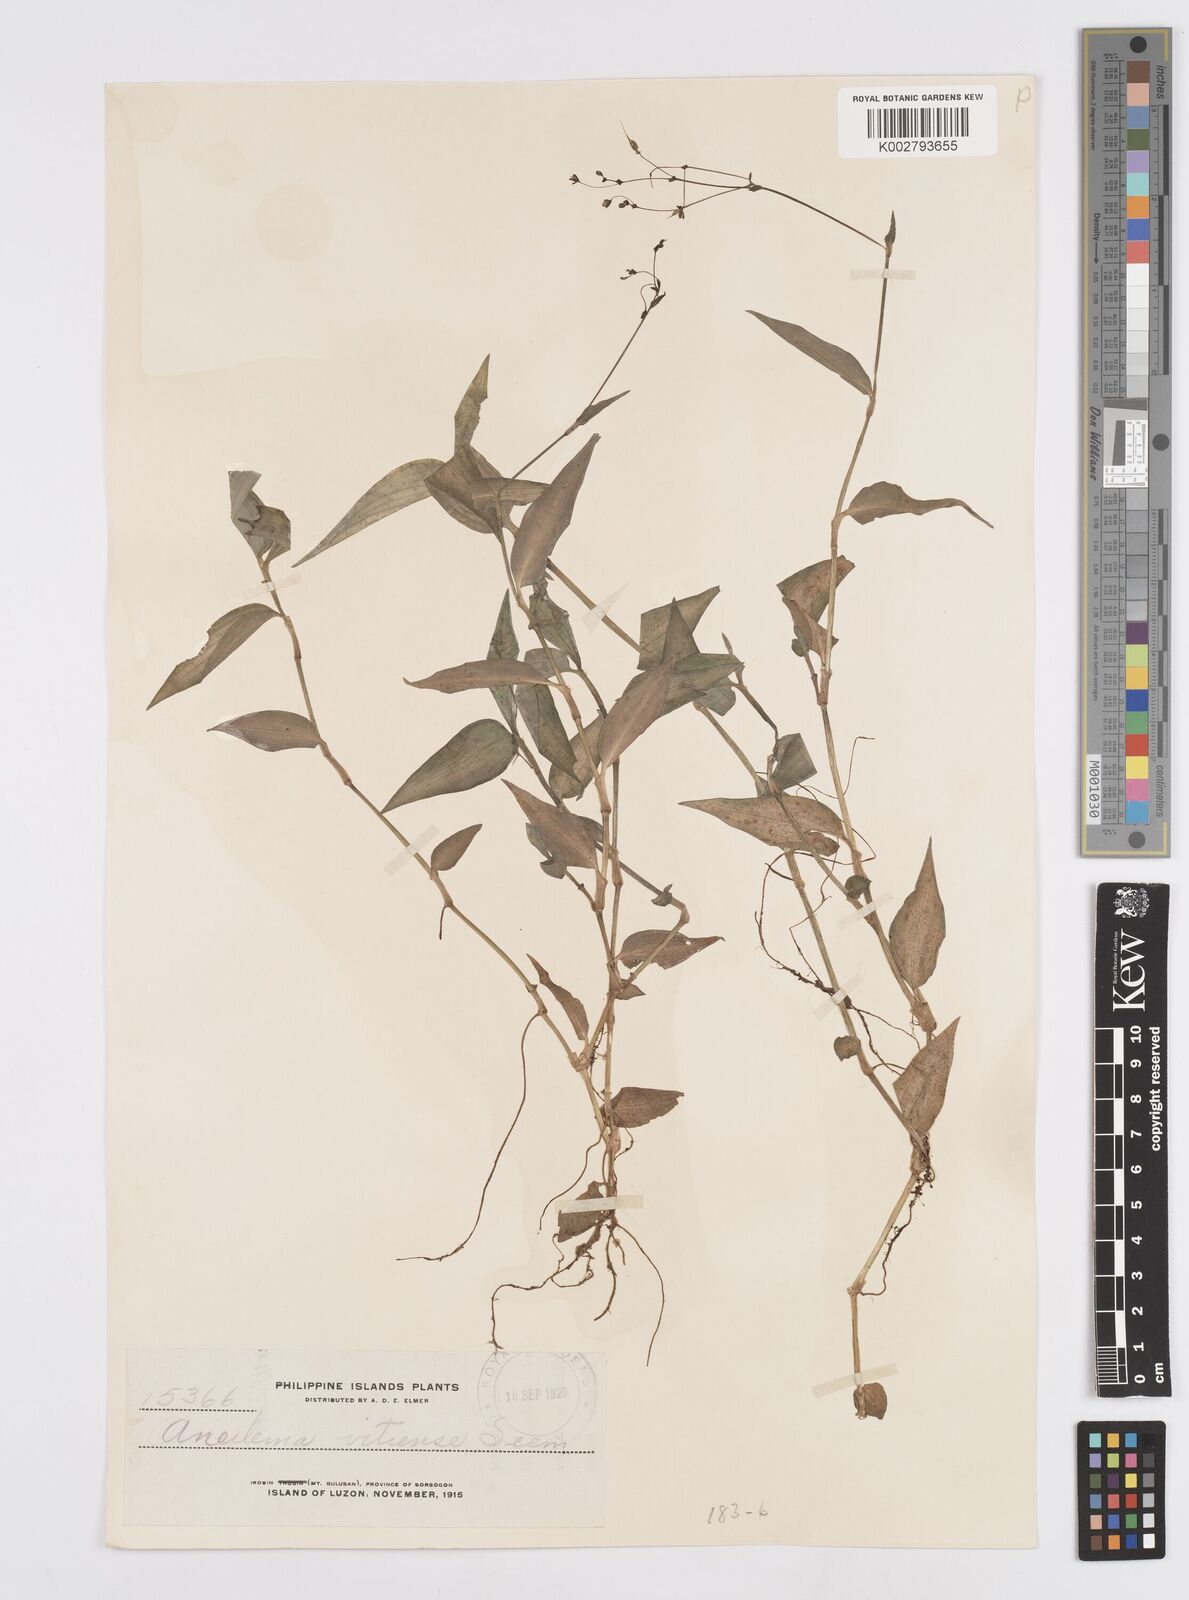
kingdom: Plantae
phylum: Tracheophyta
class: Liliopsida
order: Commelinales
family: Commelinaceae
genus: Murdannia
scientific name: Murdannia
